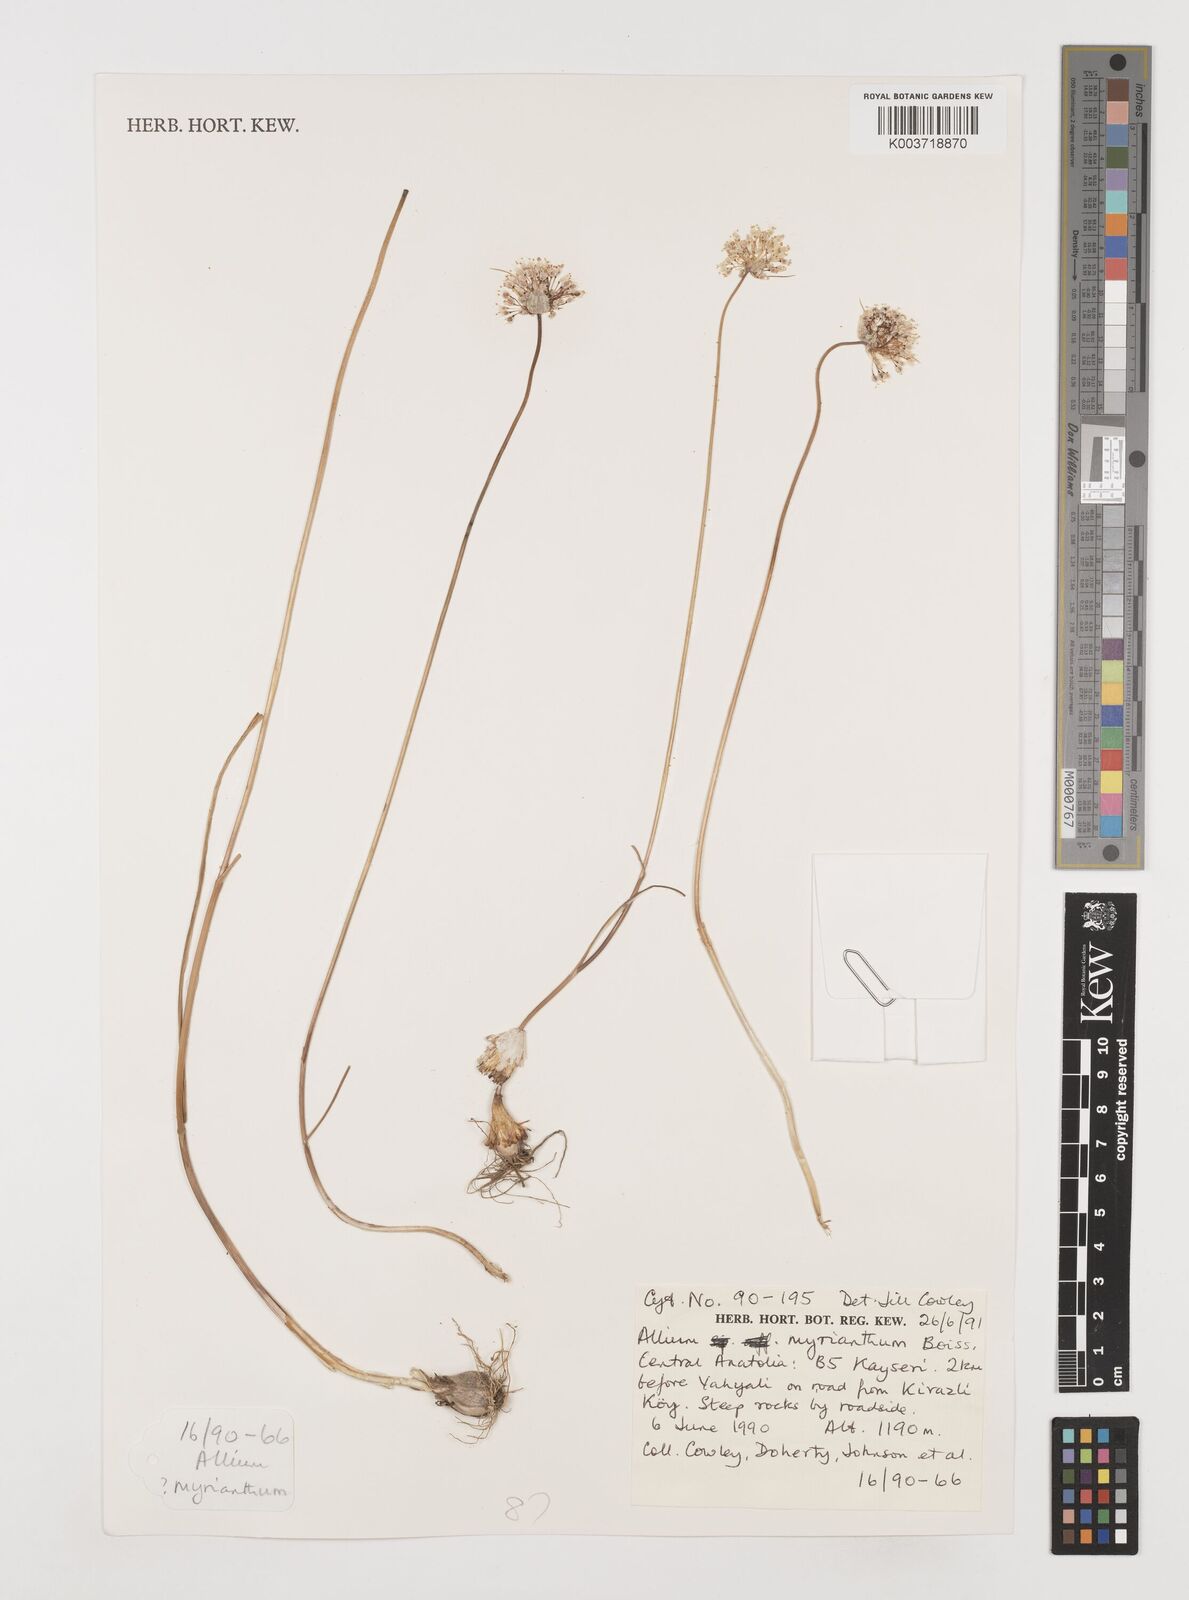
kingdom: Plantae
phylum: Tracheophyta
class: Liliopsida
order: Asparagales
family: Amaryllidaceae
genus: Allium
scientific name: Allium myrianthum
